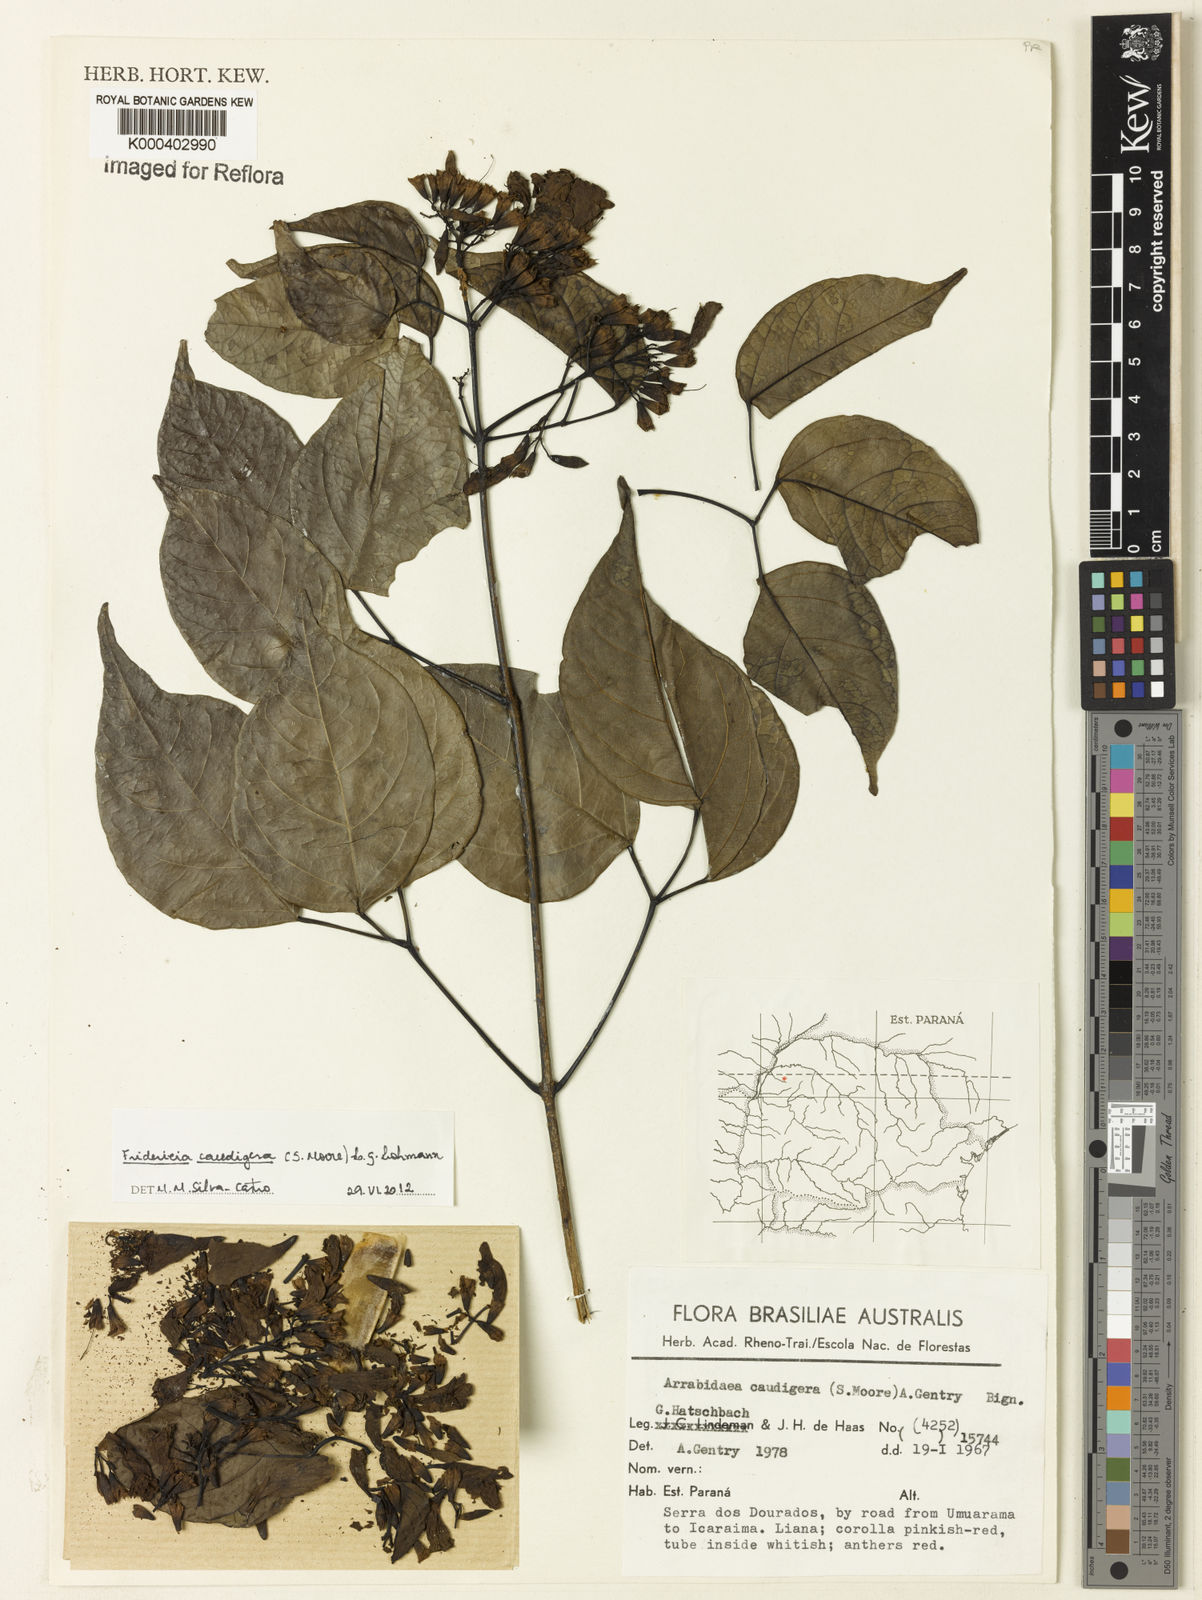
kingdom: Plantae
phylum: Tracheophyta
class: Magnoliopsida
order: Lamiales
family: Bignoniaceae
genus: Fridericia
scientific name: Fridericia caudigera
